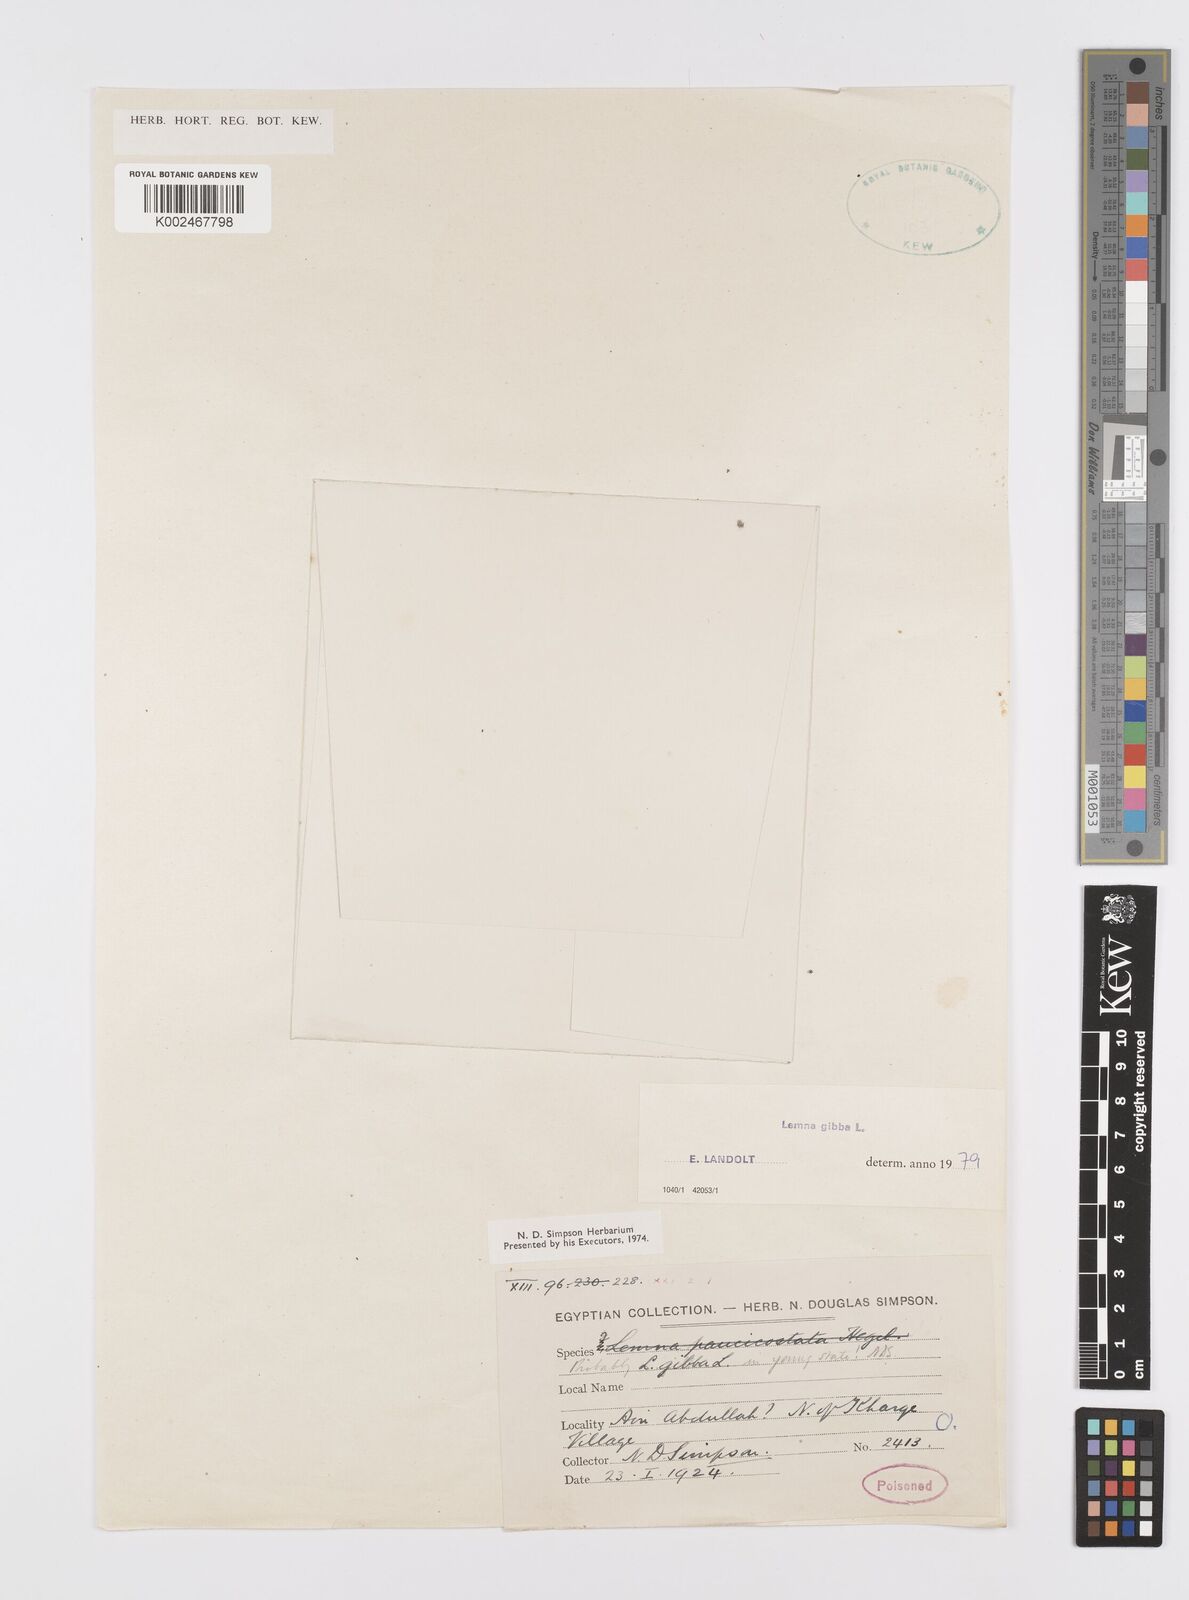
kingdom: Plantae
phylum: Tracheophyta
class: Liliopsida
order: Alismatales
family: Araceae
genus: Lemna
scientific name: Lemna gibba
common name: Fat duckweed
